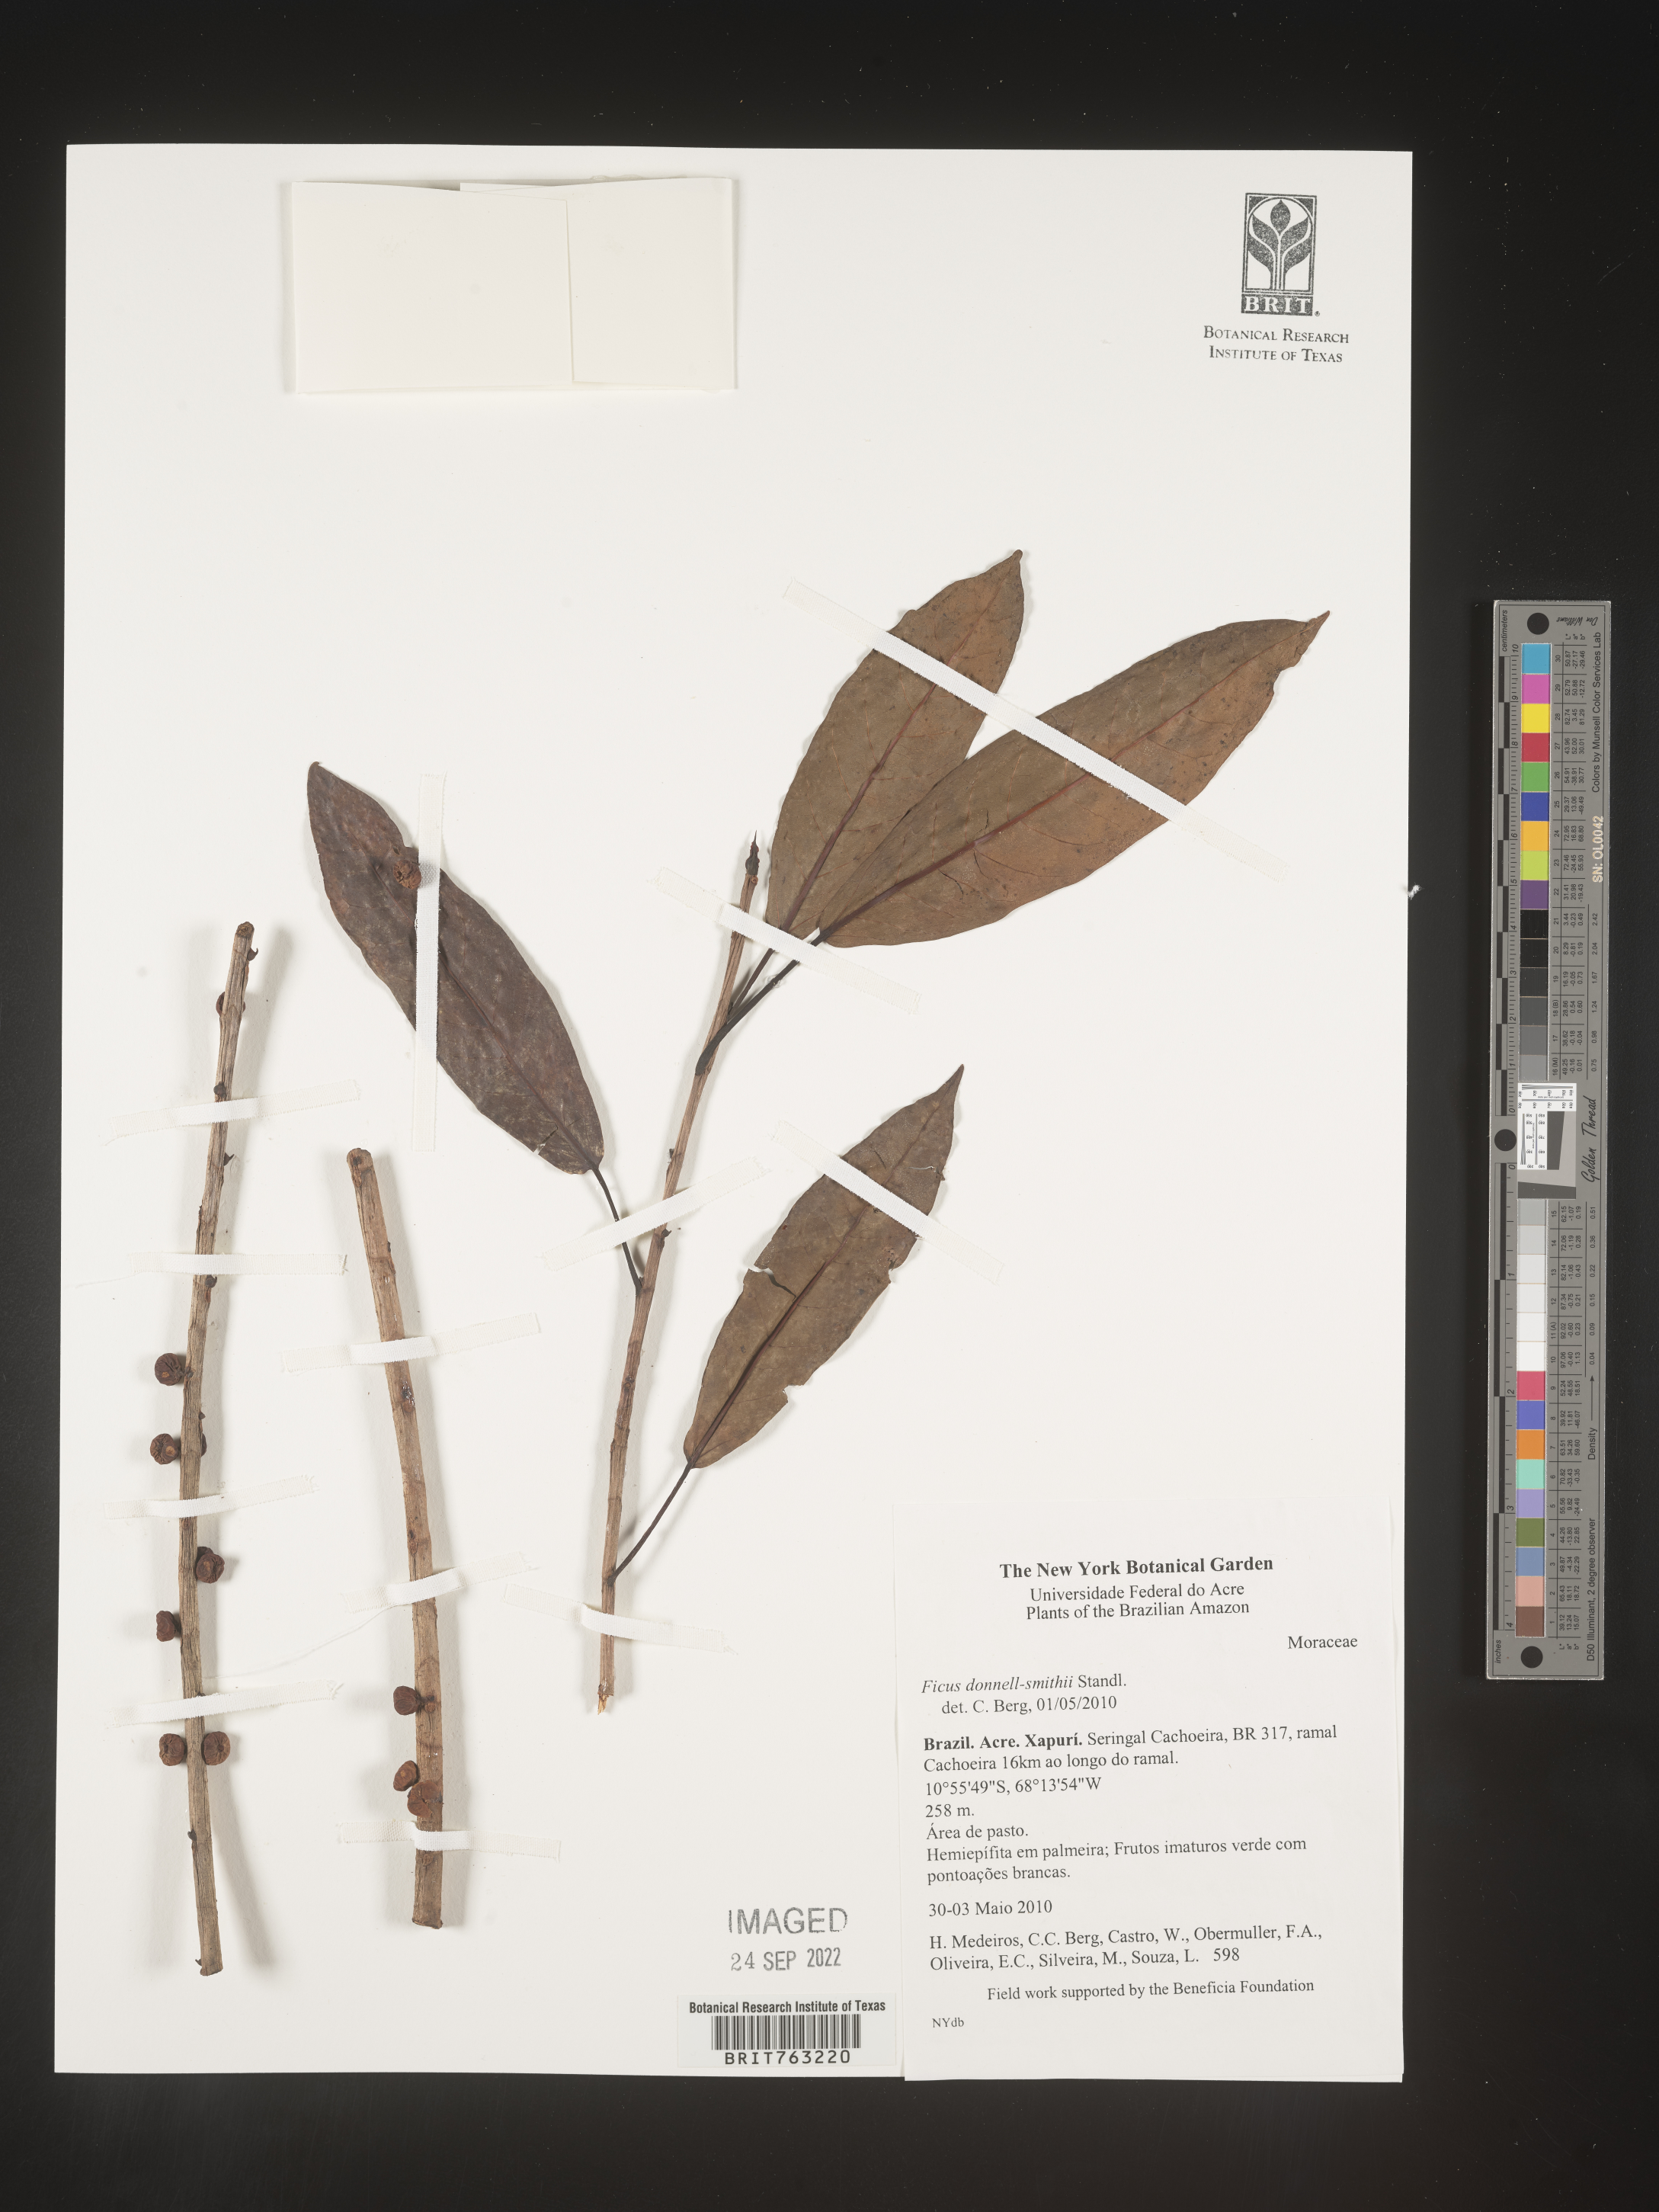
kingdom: Plantae
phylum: Tracheophyta
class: Magnoliopsida
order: Rosales
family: Moraceae
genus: Ficus
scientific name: Ficus donnell-smithii
